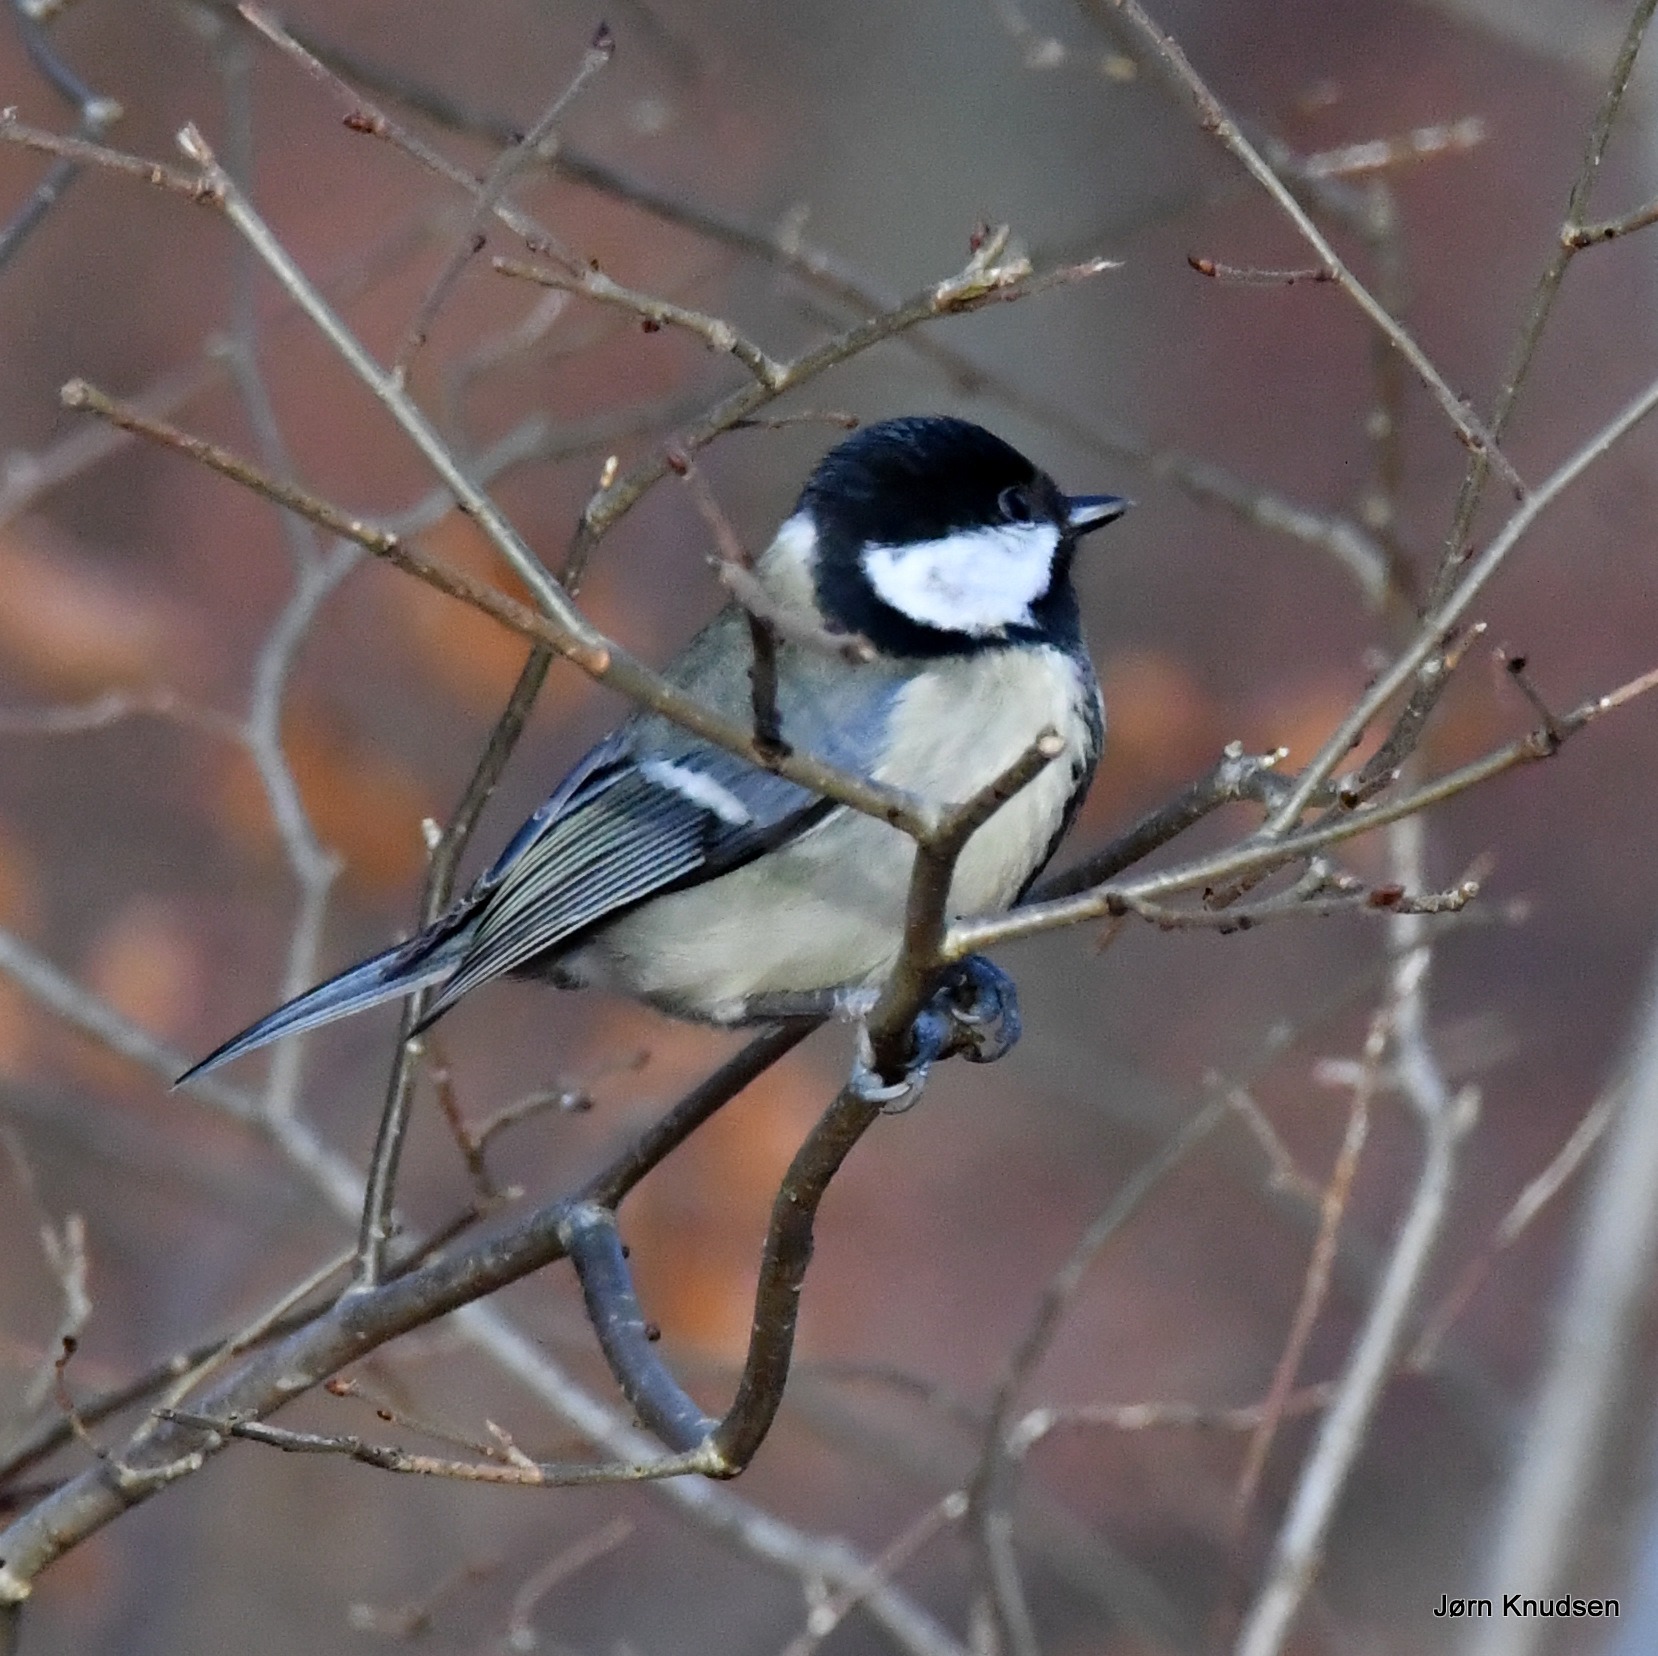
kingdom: Animalia
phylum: Chordata
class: Aves
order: Passeriformes
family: Paridae
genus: Parus
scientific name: Parus major
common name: Musvit
